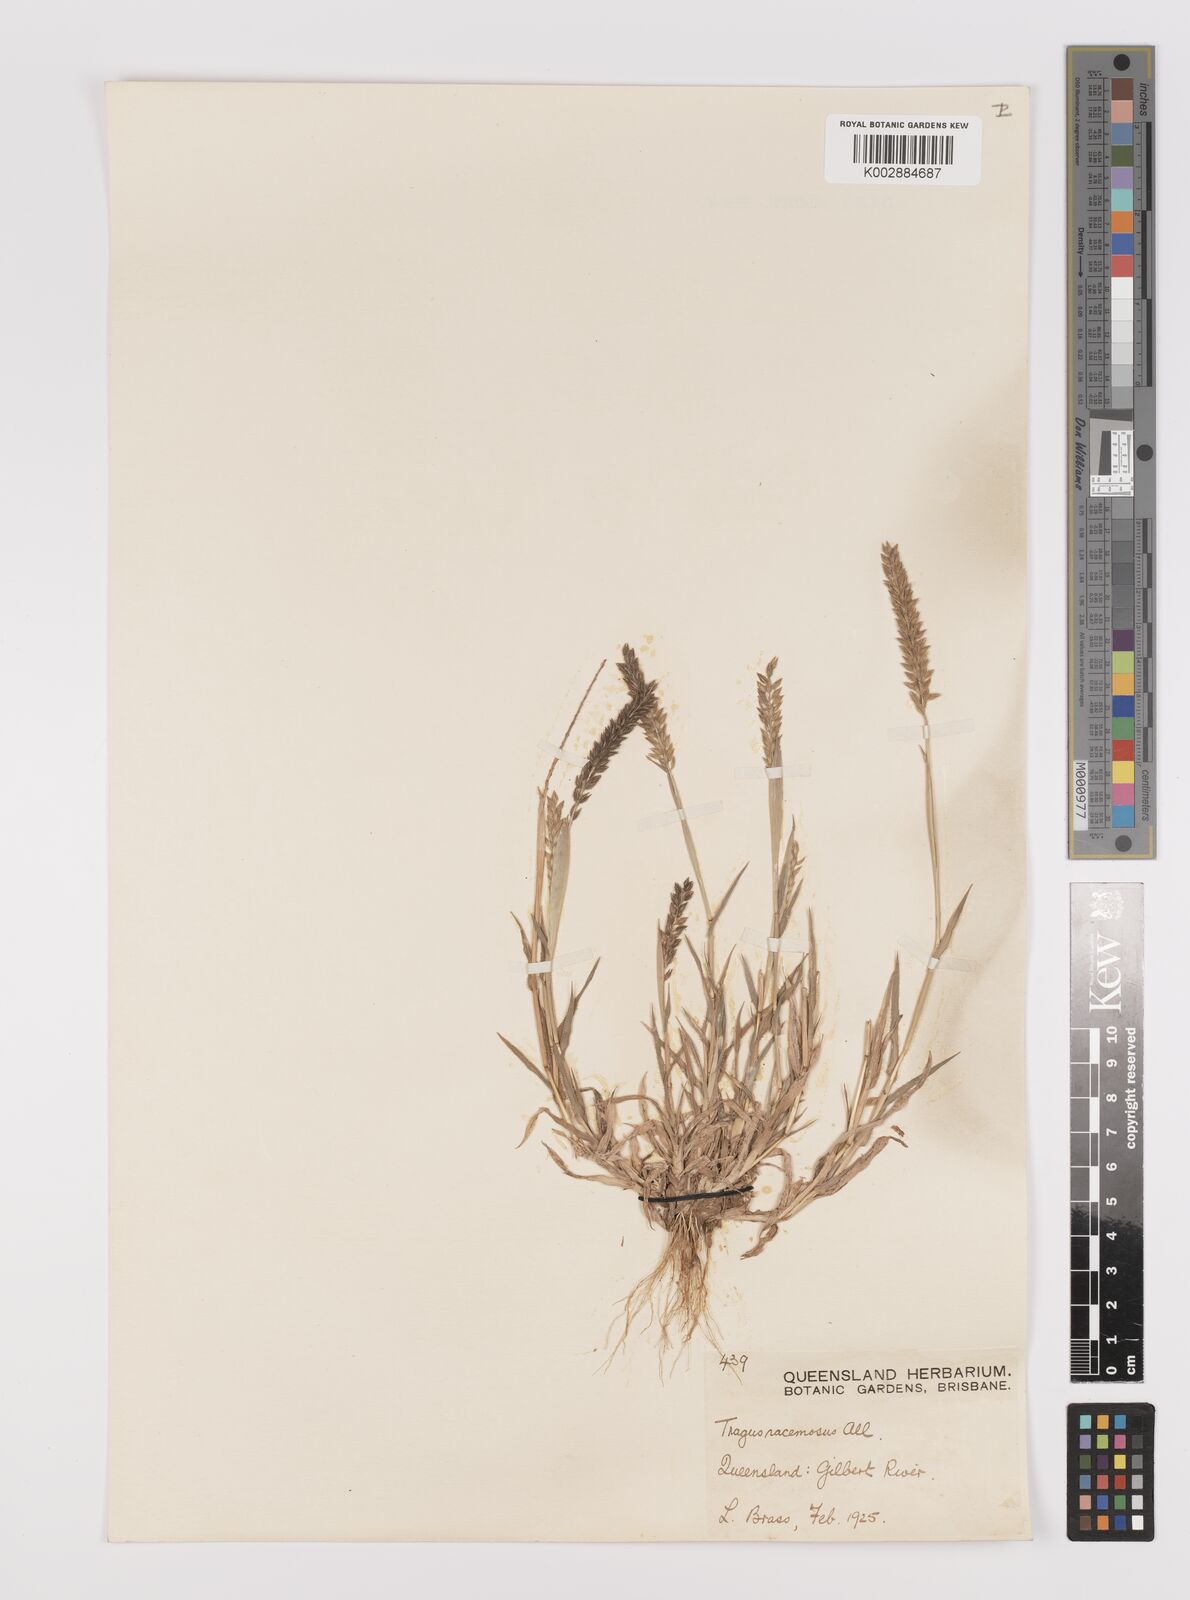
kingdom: Plantae
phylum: Tracheophyta
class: Liliopsida
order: Poales
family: Poaceae
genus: Tragus
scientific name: Tragus australianus
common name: Australian bur-grass
